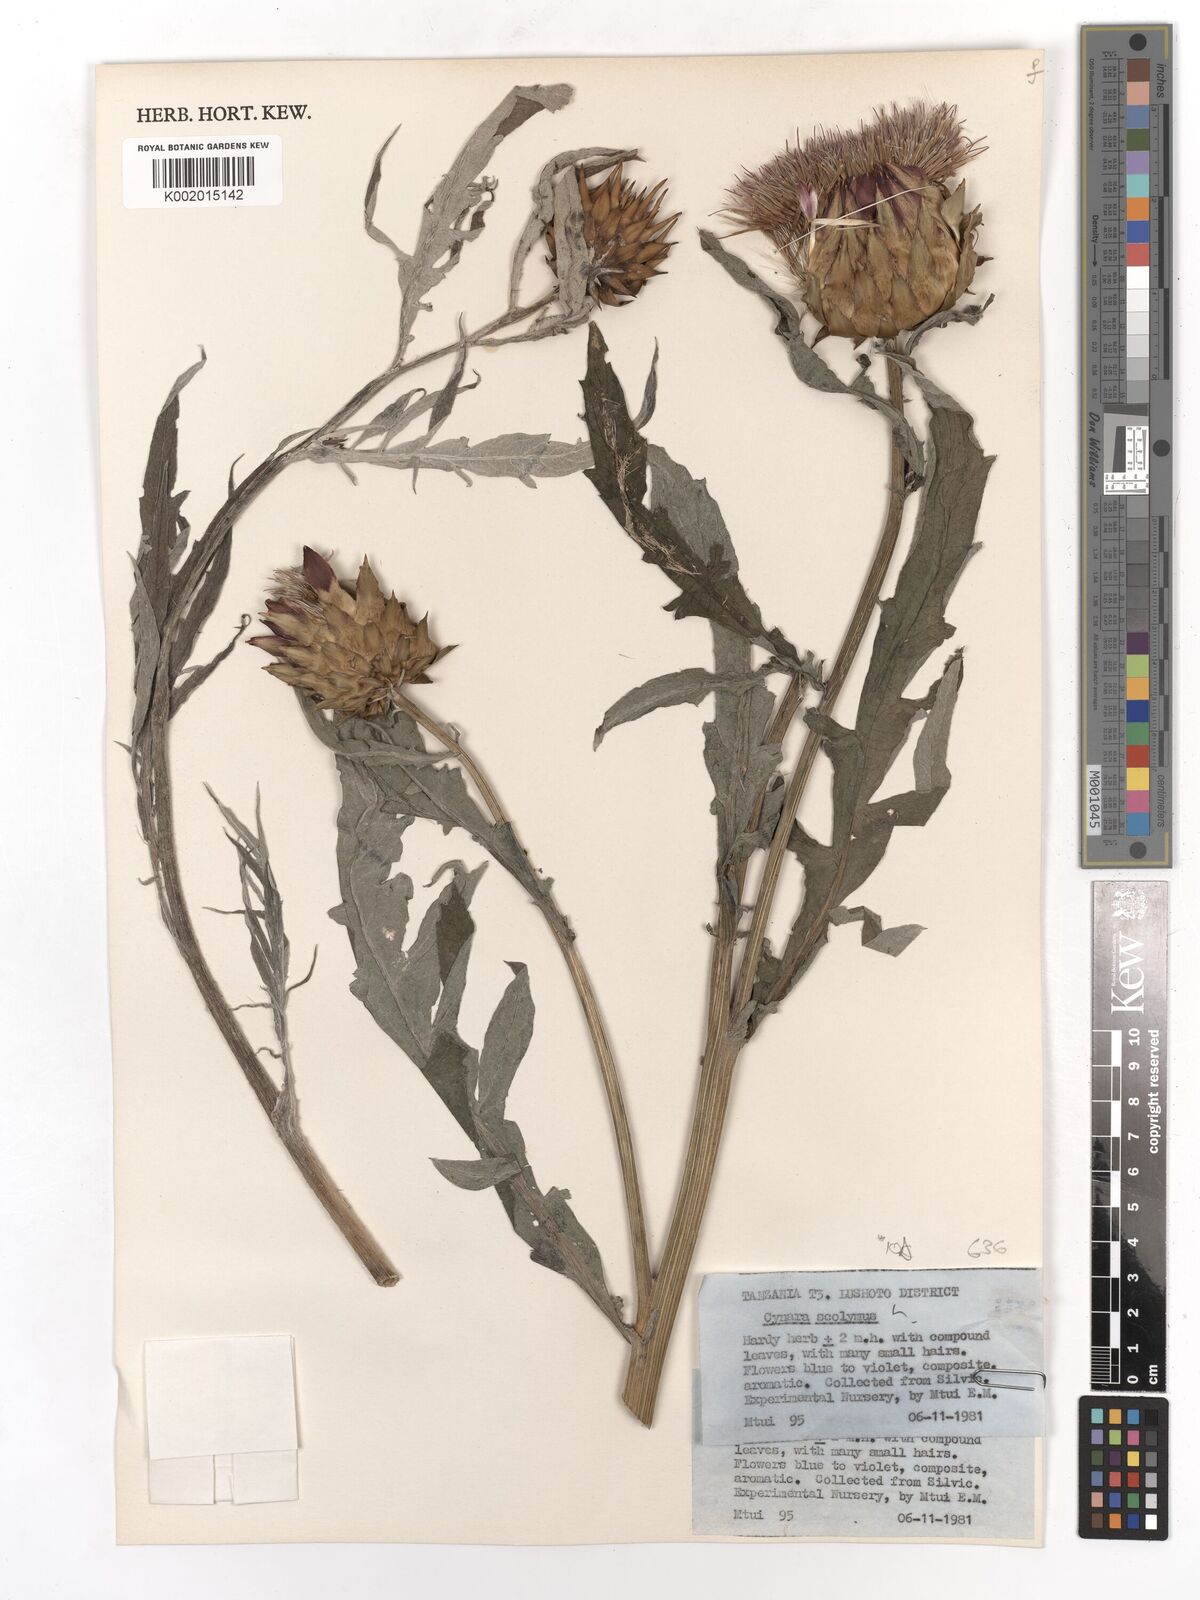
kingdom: Plantae
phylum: Tracheophyta
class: Magnoliopsida
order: Asterales
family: Asteraceae
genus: Cynara
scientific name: Cynara cardunculus
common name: Globe artichoke
